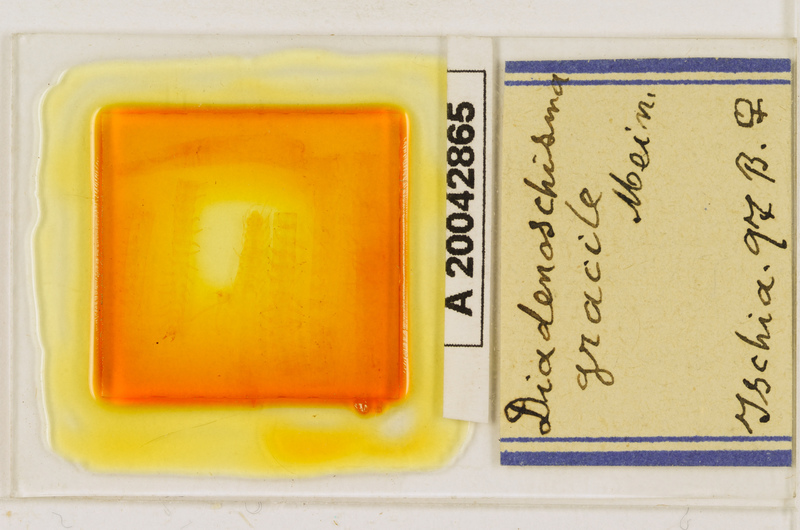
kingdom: Animalia
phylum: Arthropoda
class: Chilopoda
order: Geophilomorpha
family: Himantariidae
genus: Stigmatogaster
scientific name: Stigmatogaster
